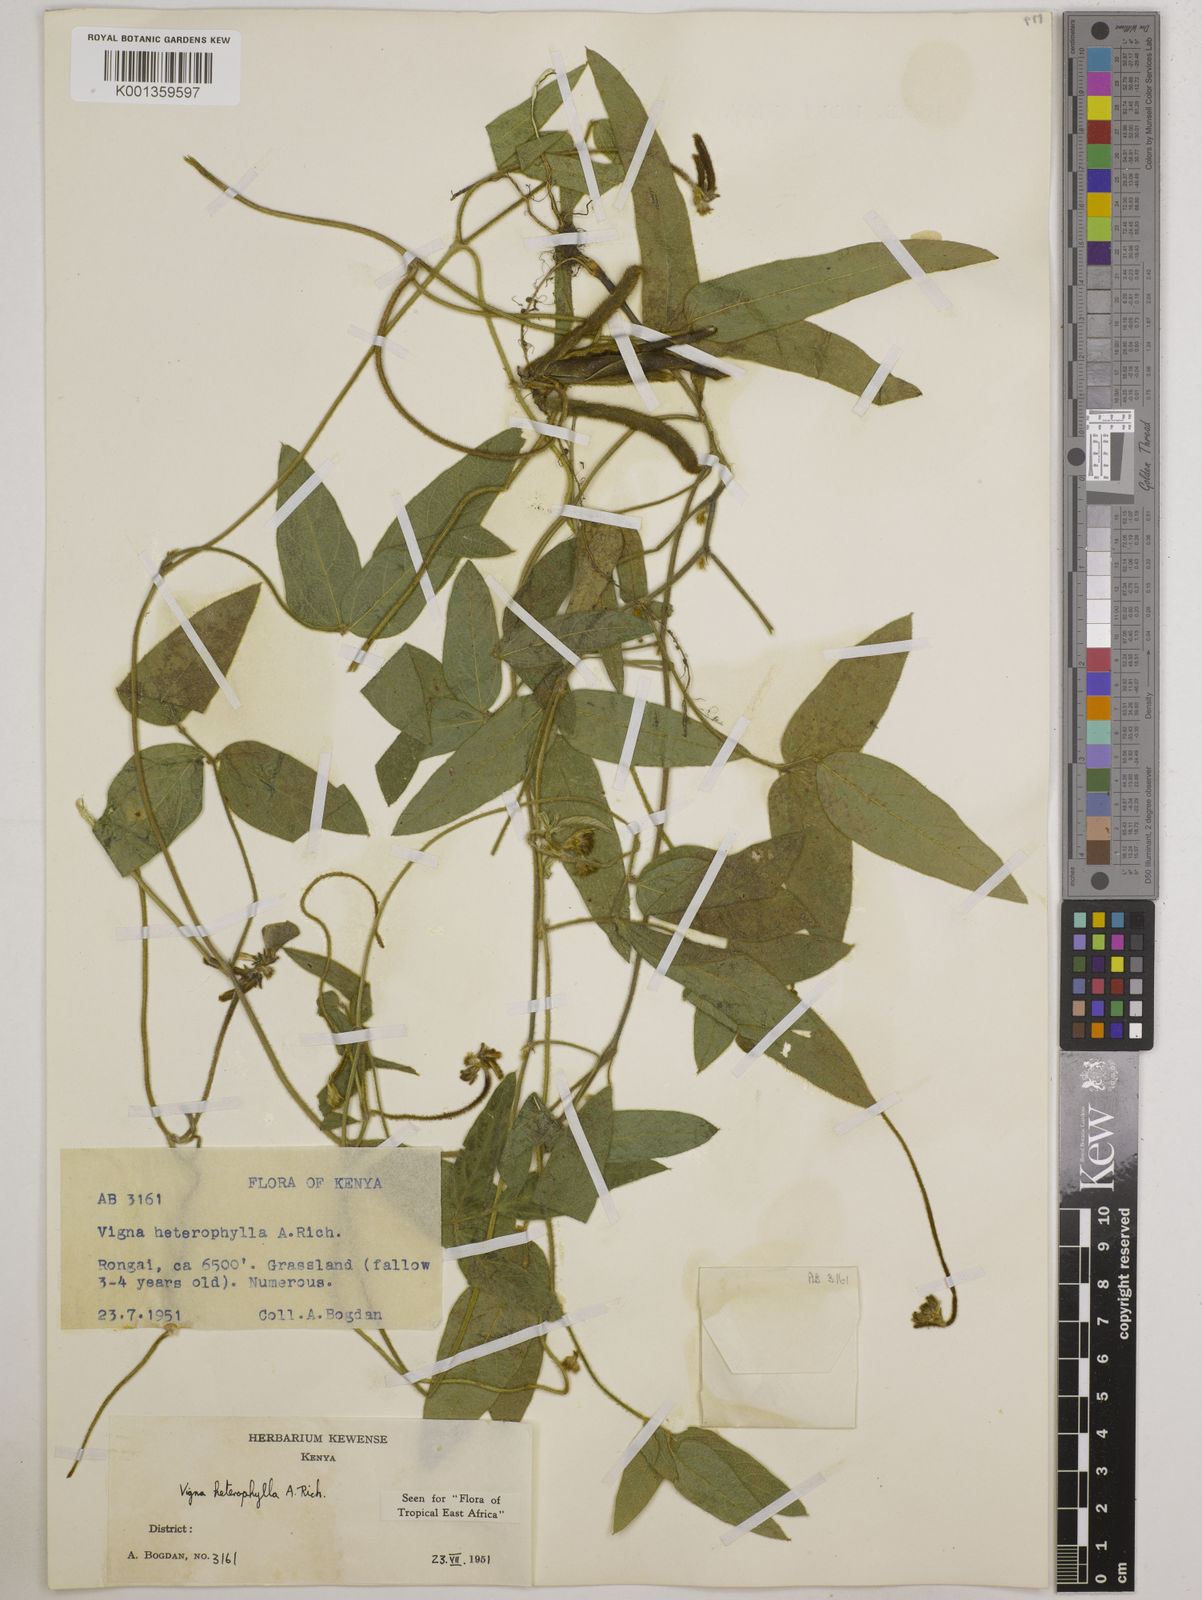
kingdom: Plantae
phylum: Tracheophyta
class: Magnoliopsida
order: Fabales
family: Fabaceae
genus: Vigna
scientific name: Vigna heterophylla
